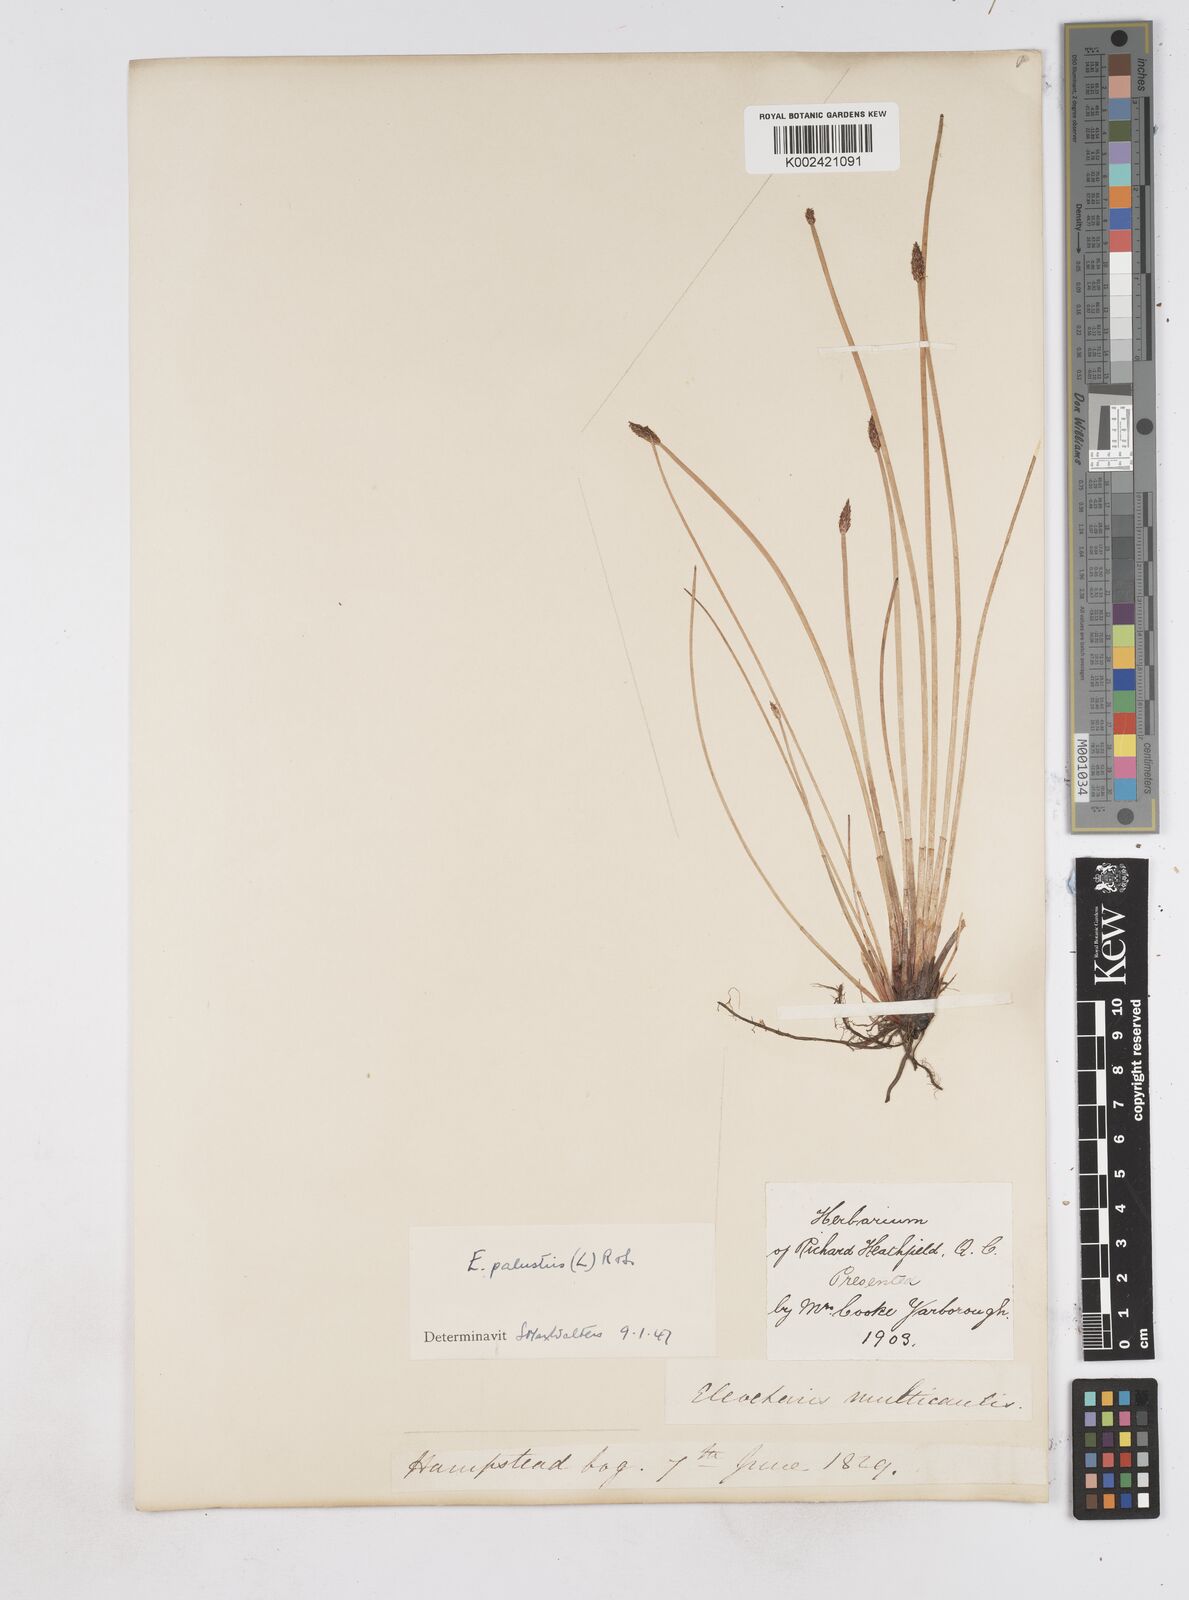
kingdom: Plantae
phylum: Tracheophyta
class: Liliopsida
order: Poales
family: Cyperaceae
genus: Eleocharis
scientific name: Eleocharis palustris
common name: Common spike-rush
